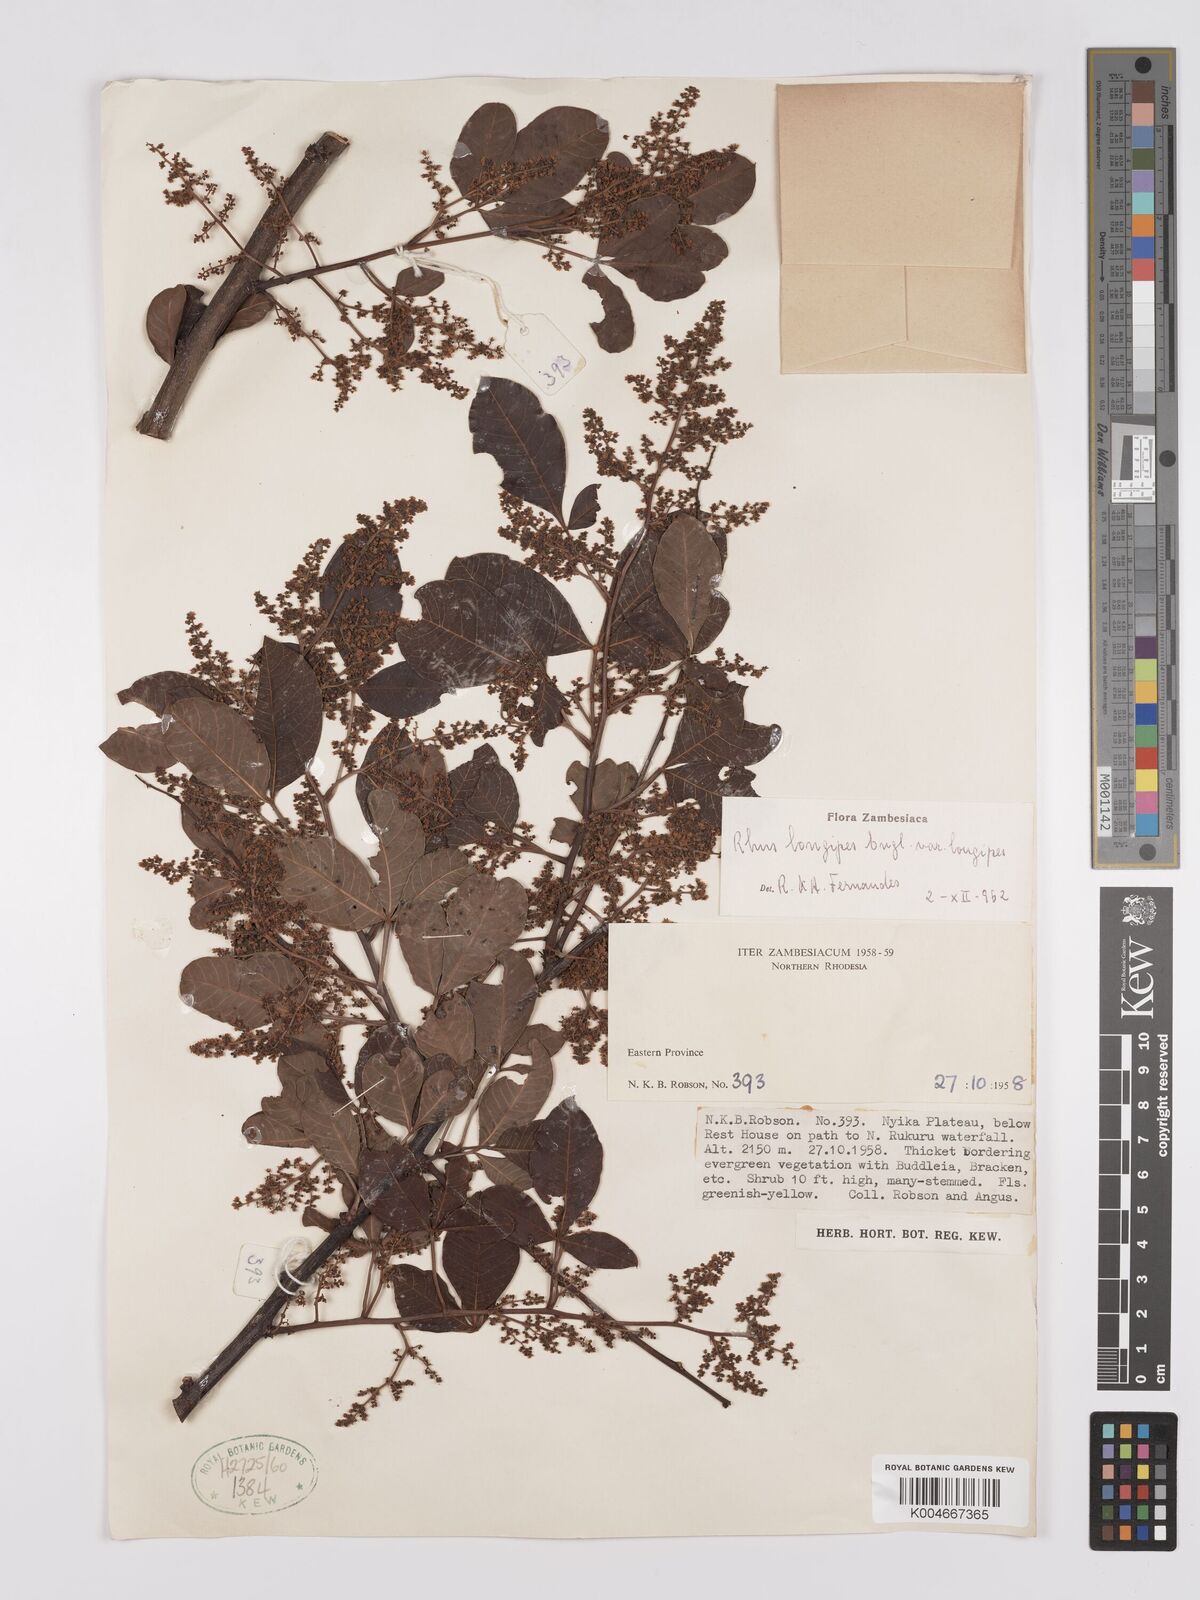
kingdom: Plantae
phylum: Tracheophyta
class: Magnoliopsida
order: Sapindales
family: Anacardiaceae
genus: Searsia
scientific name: Searsia longipes
